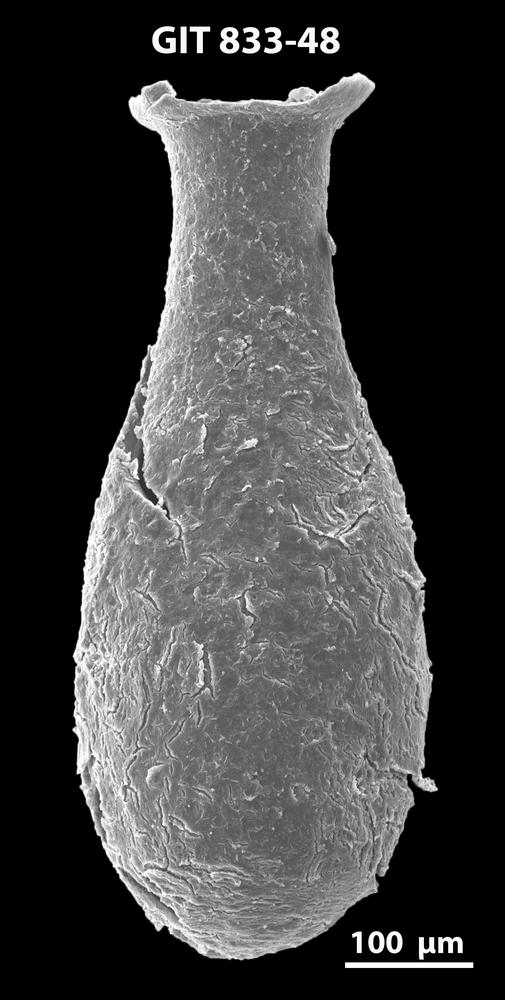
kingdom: Animalia
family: Lagenochitinidae
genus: Lagenochitina
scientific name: Lagenochitina megaesthonica
